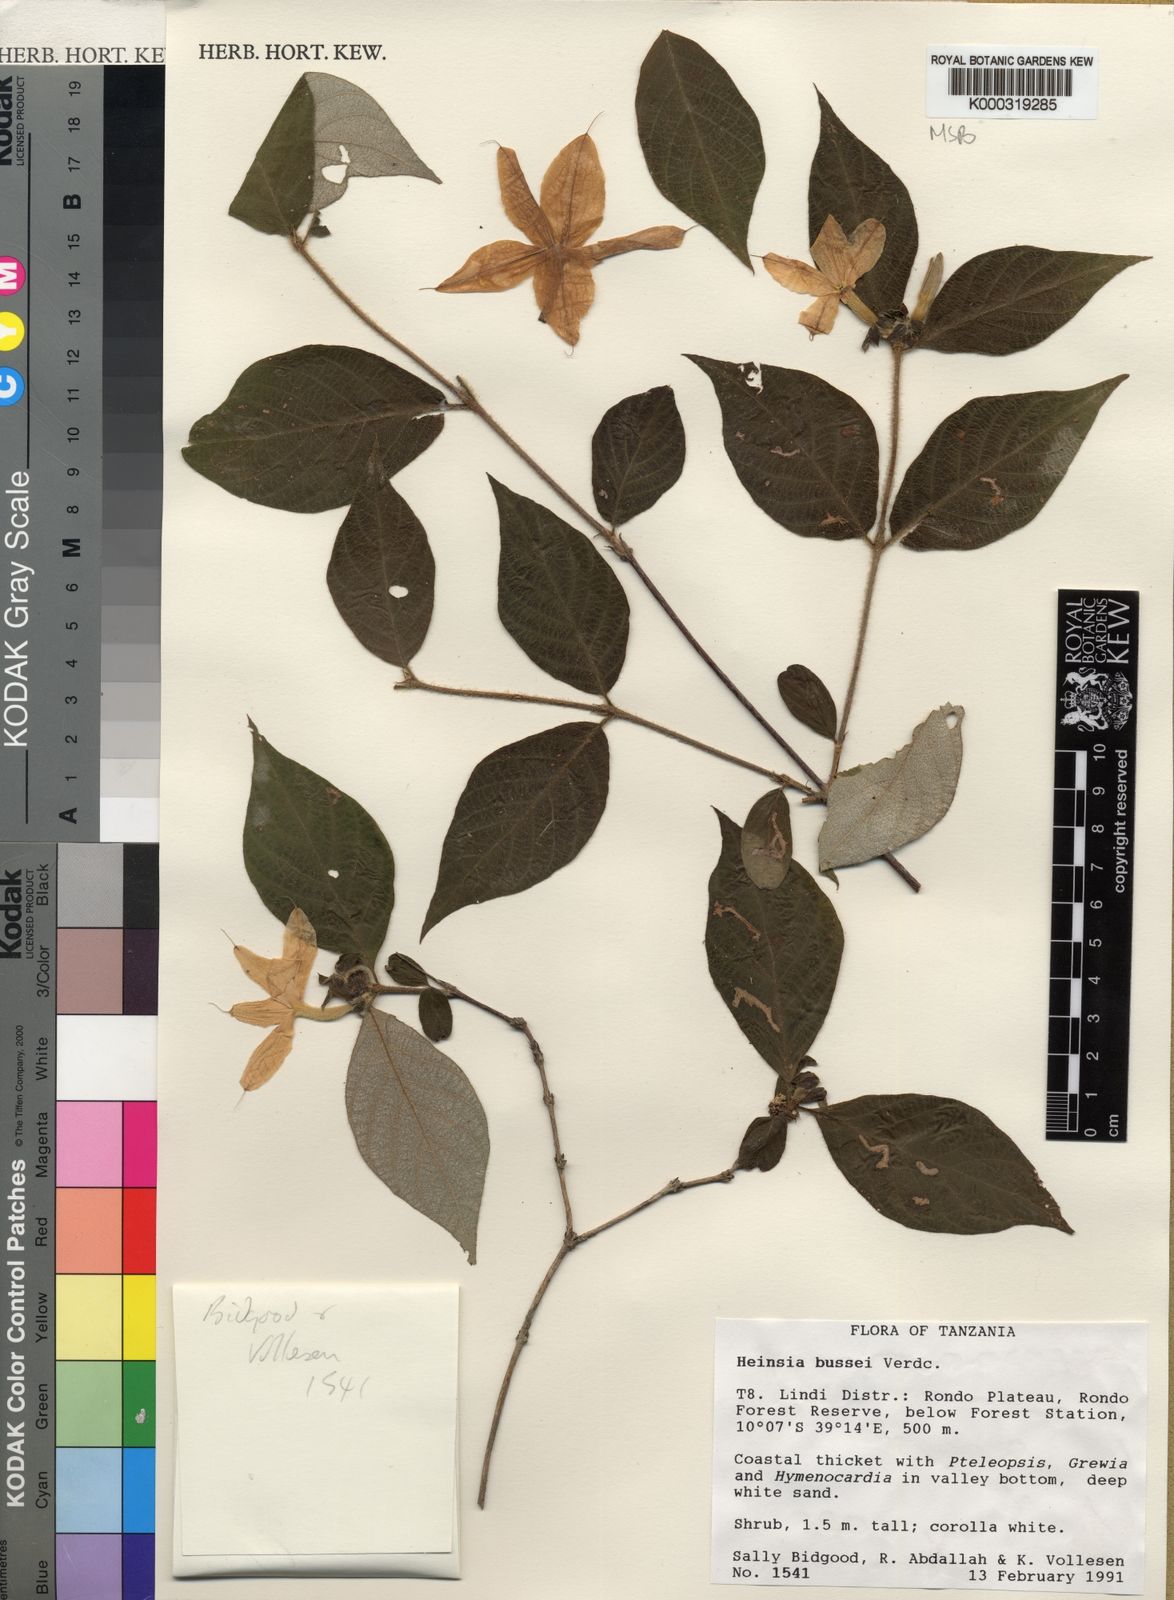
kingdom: Plantae
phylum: Tracheophyta
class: Magnoliopsida
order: Gentianales
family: Rubiaceae
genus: Heinsia
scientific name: Heinsia bussei
